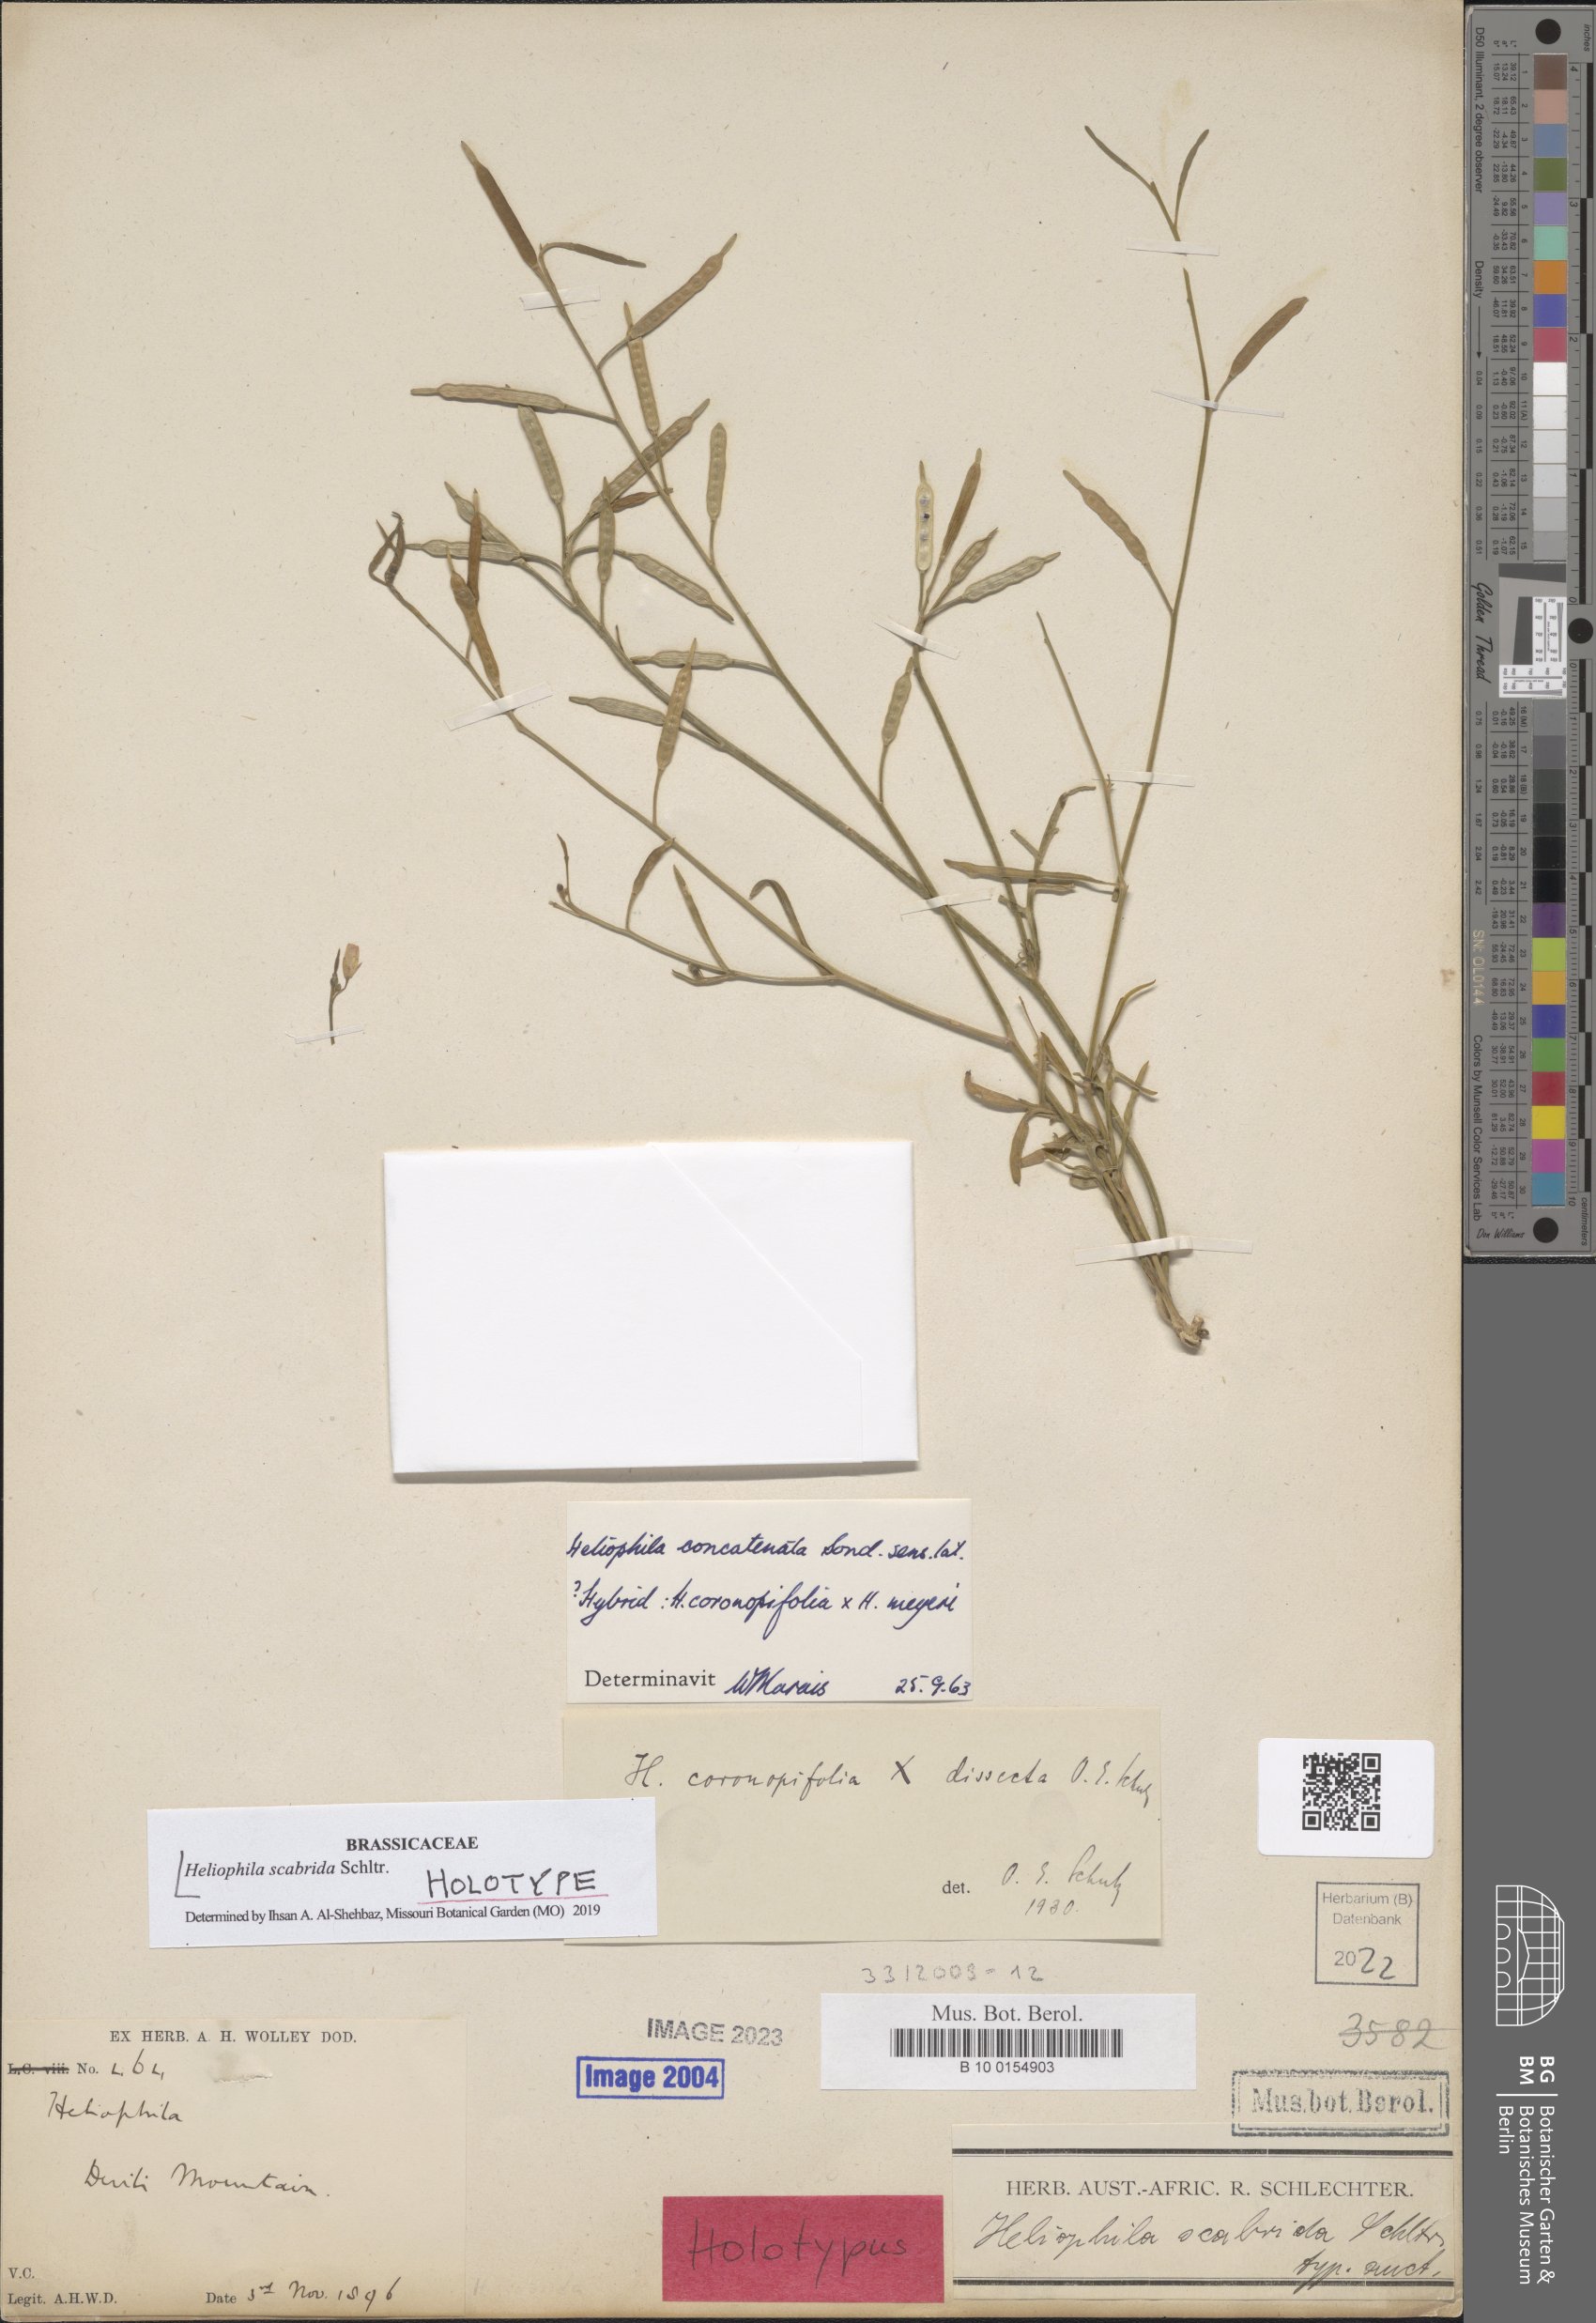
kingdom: Plantae
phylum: Tracheophyta
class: Magnoliopsida
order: Brassicales
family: Brassicaceae
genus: Heliophila
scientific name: Heliophila concatenata
